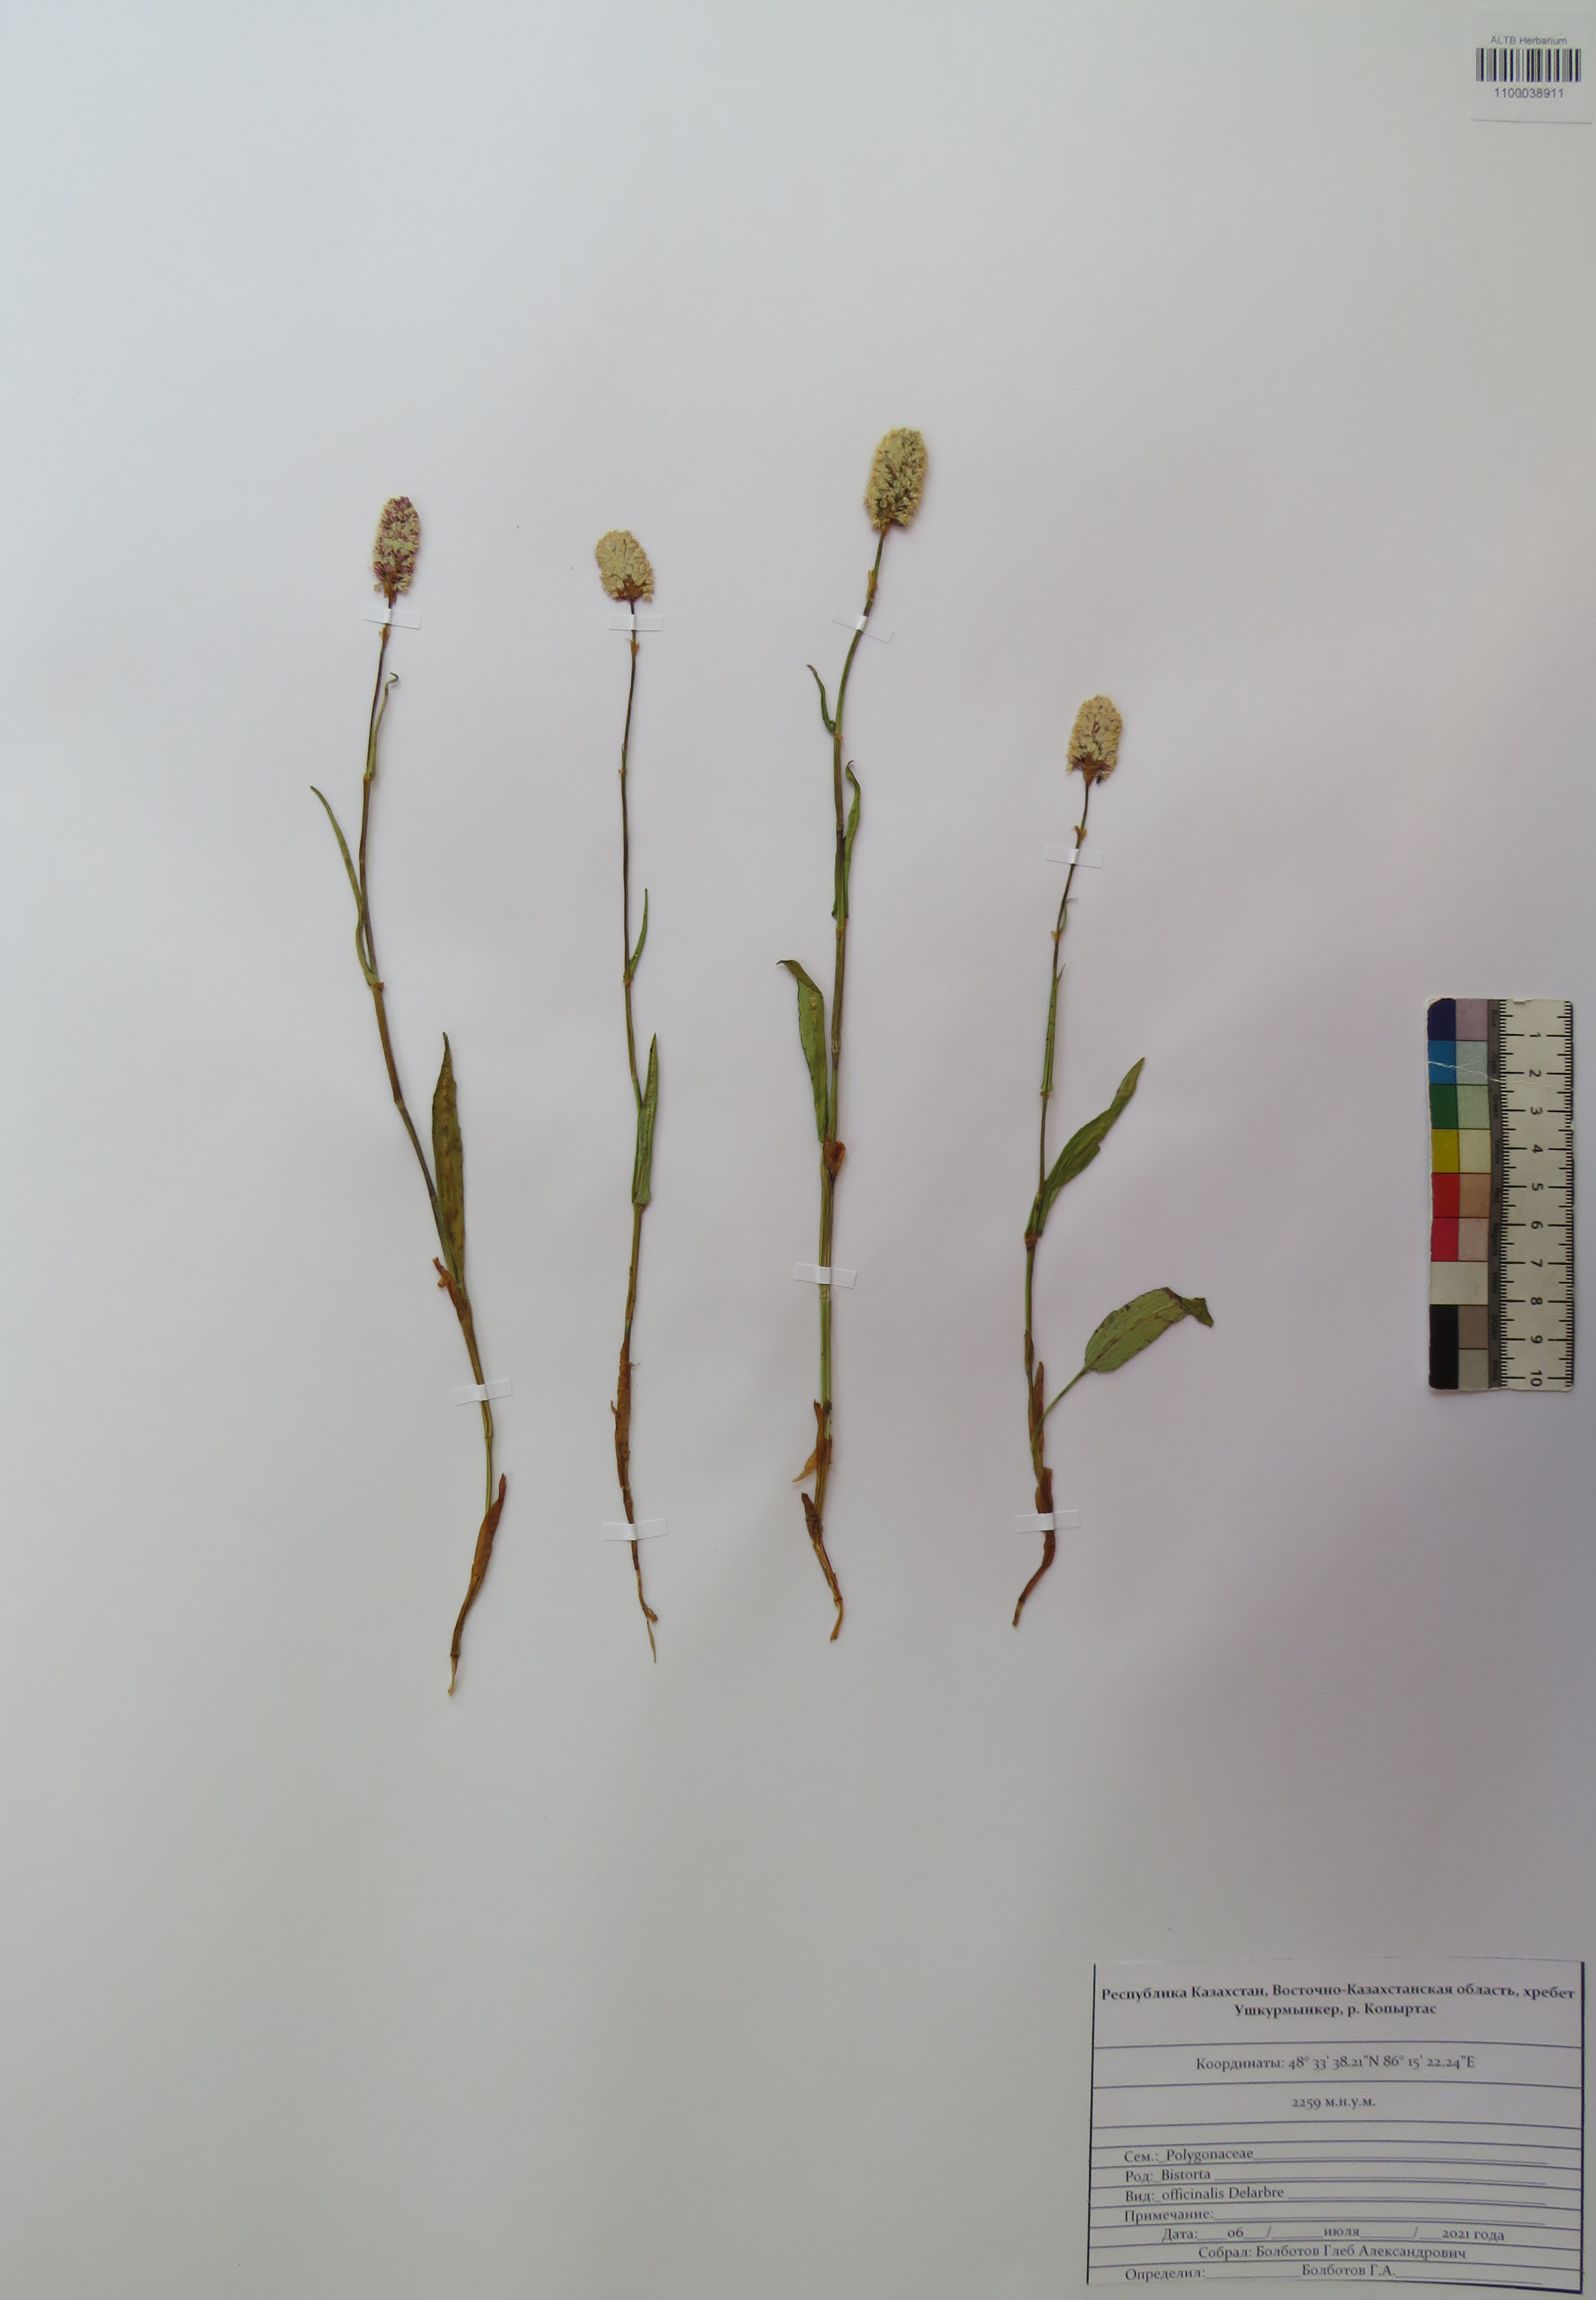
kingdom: Plantae
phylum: Tracheophyta
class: Magnoliopsida
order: Caryophyllales
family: Polygonaceae
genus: Bistorta
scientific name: Bistorta officinalis
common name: Common bistort
